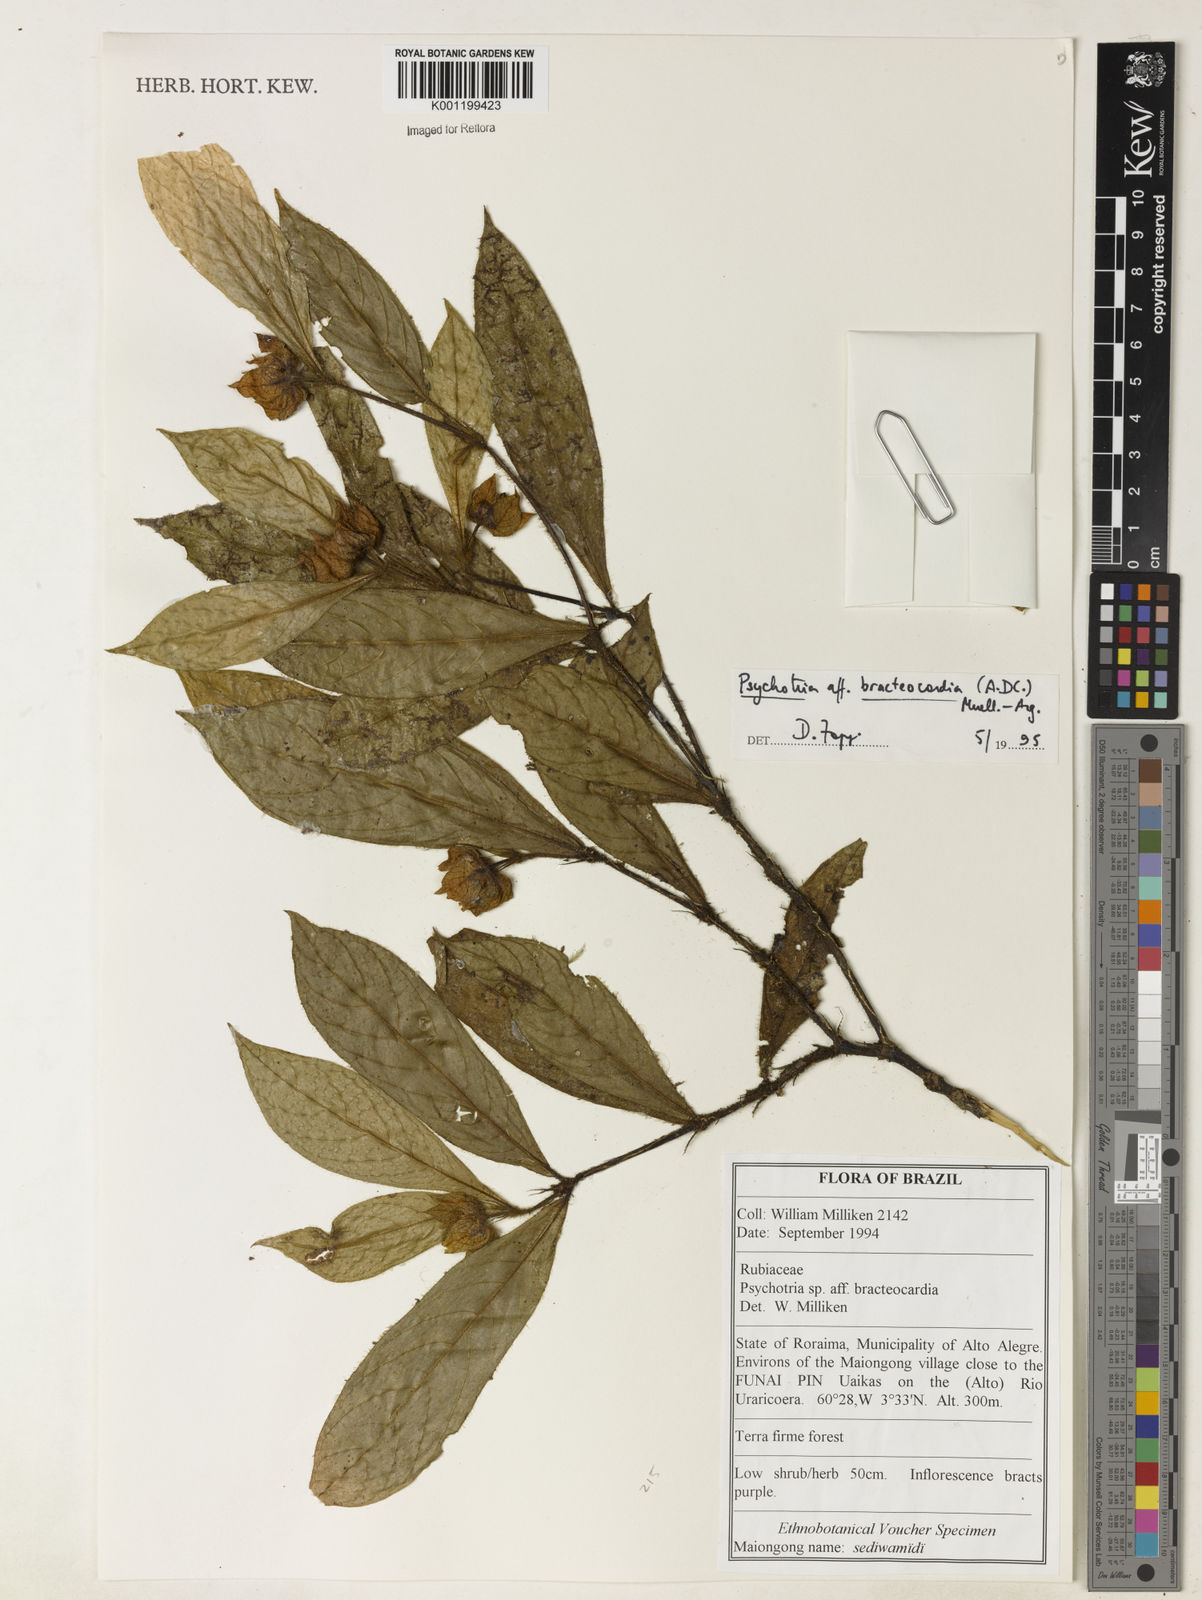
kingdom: Plantae
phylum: Tracheophyta
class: Magnoliopsida
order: Gentianales
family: Rubiaceae
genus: Psychotria
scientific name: Psychotria
